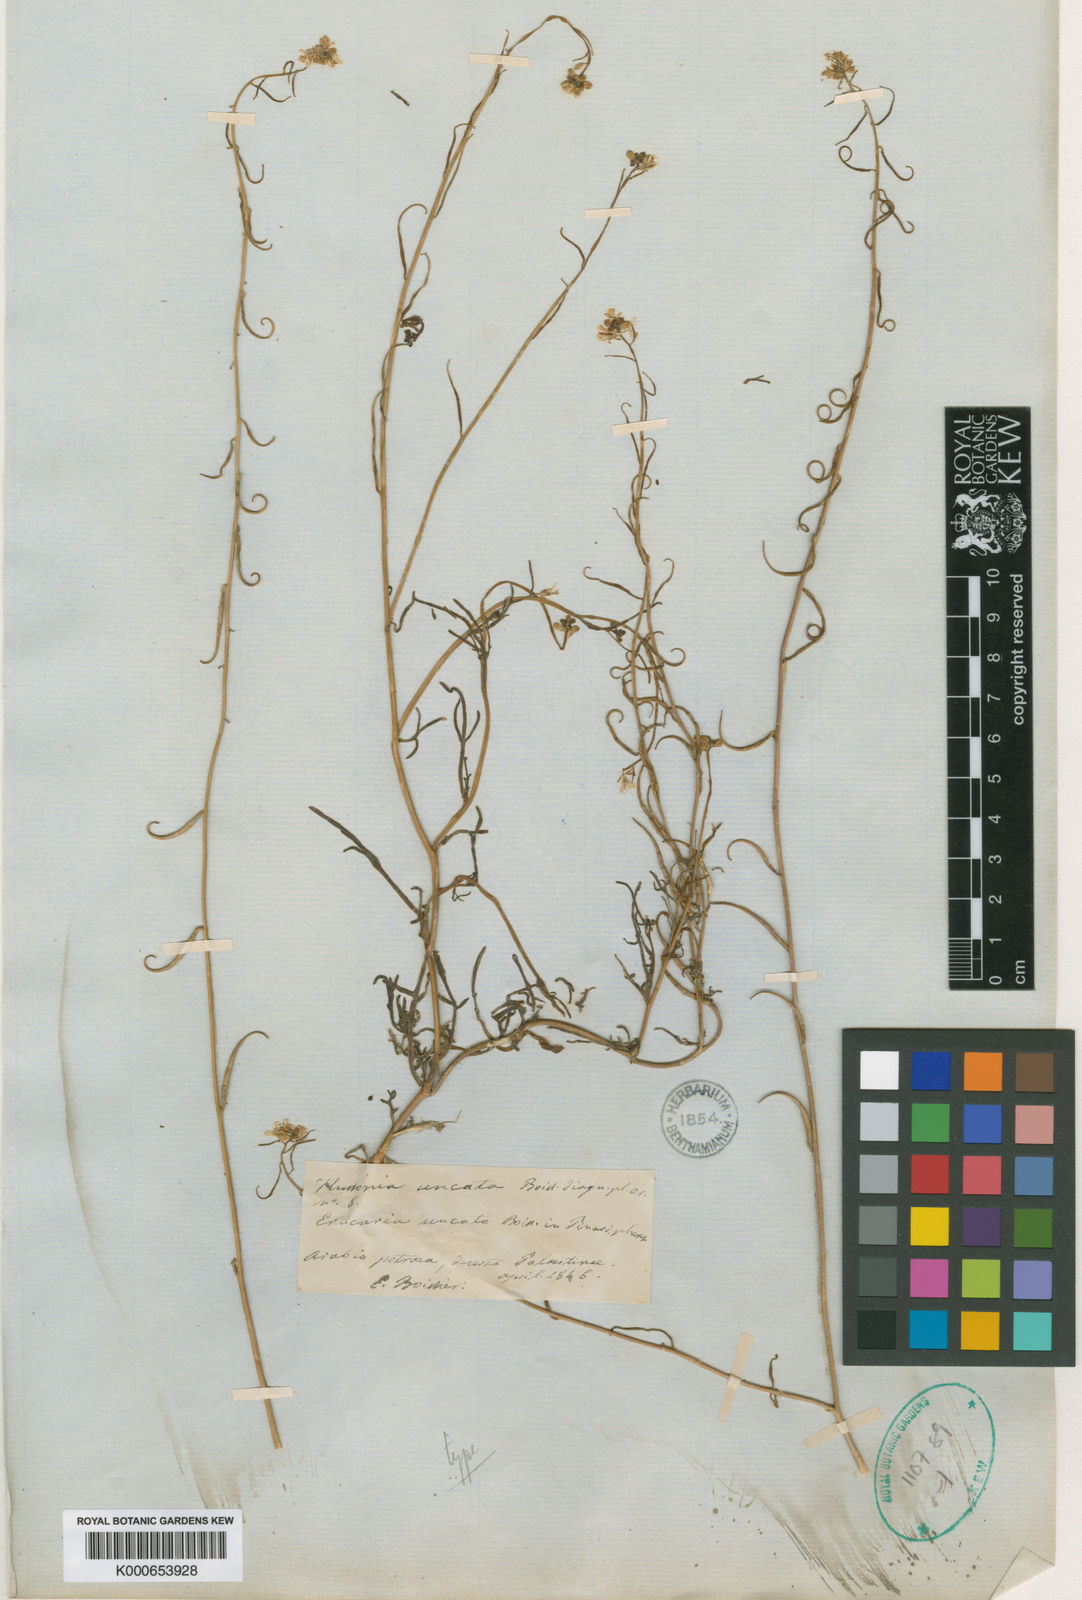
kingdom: Plantae
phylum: Tracheophyta
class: Magnoliopsida
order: Brassicales
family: Brassicaceae
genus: Erucaria
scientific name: Erucaria uncata
